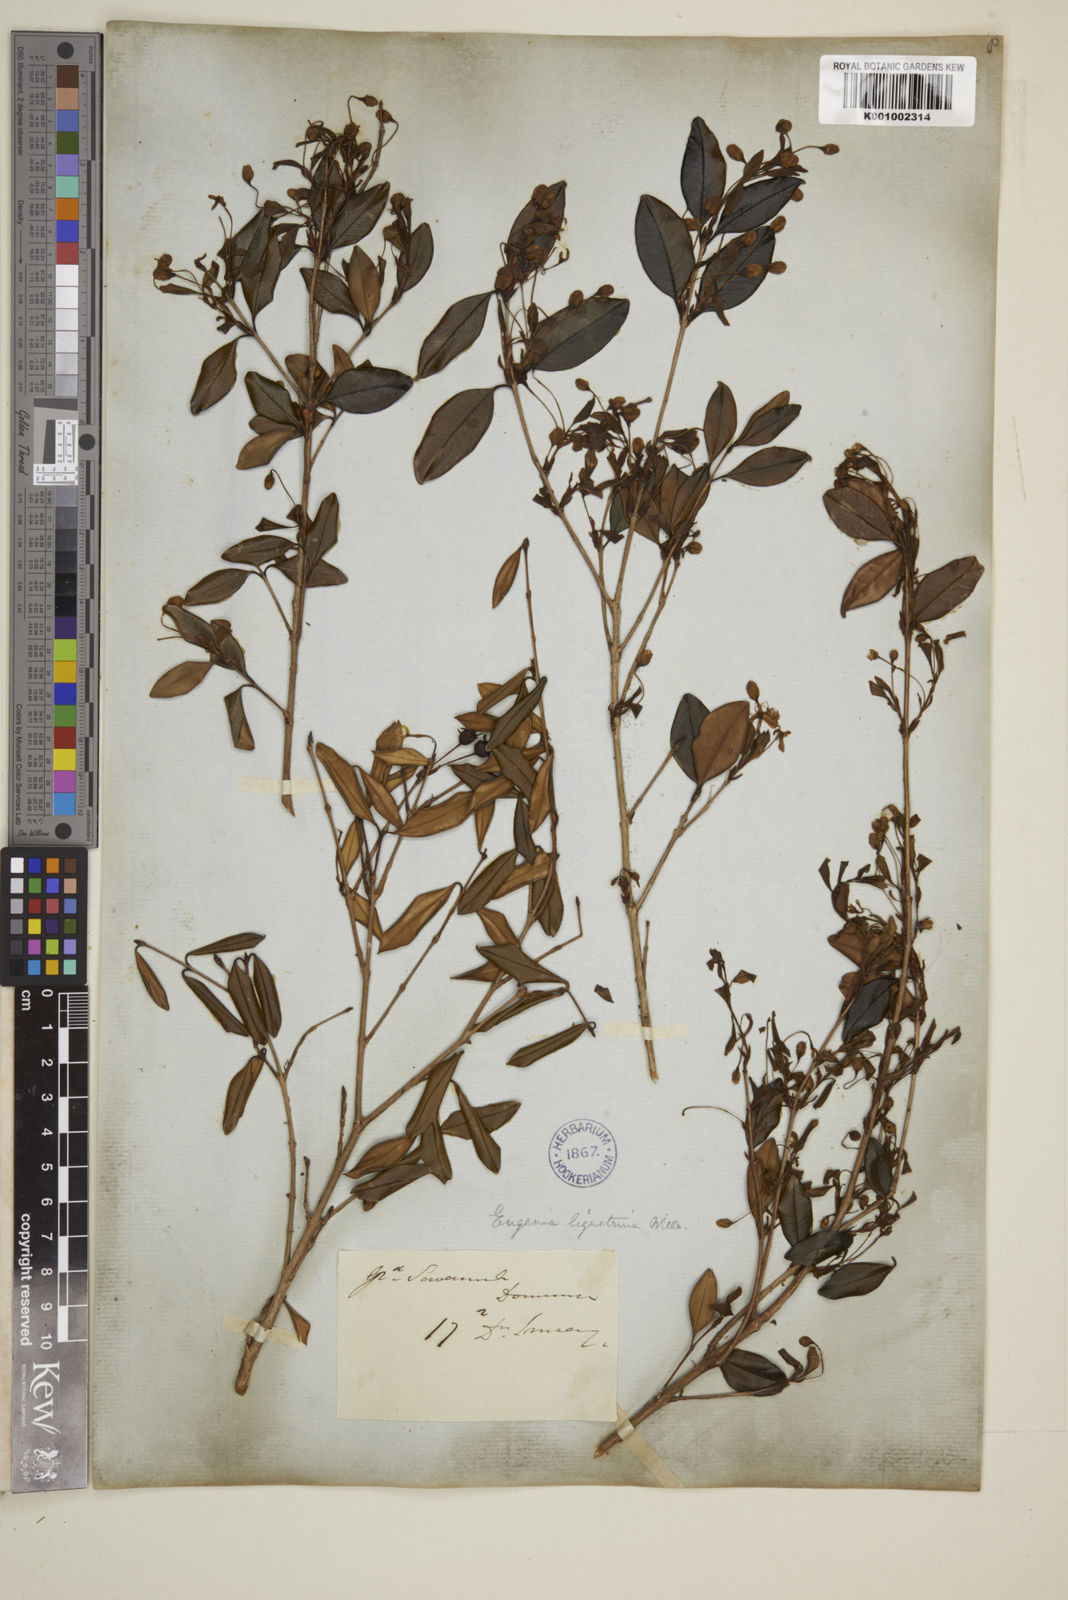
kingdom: Plantae
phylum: Tracheophyta
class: Magnoliopsida
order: Myrtales
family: Myrtaceae
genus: Eugenia
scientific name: Eugenia ligustrina
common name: Privet stopper
